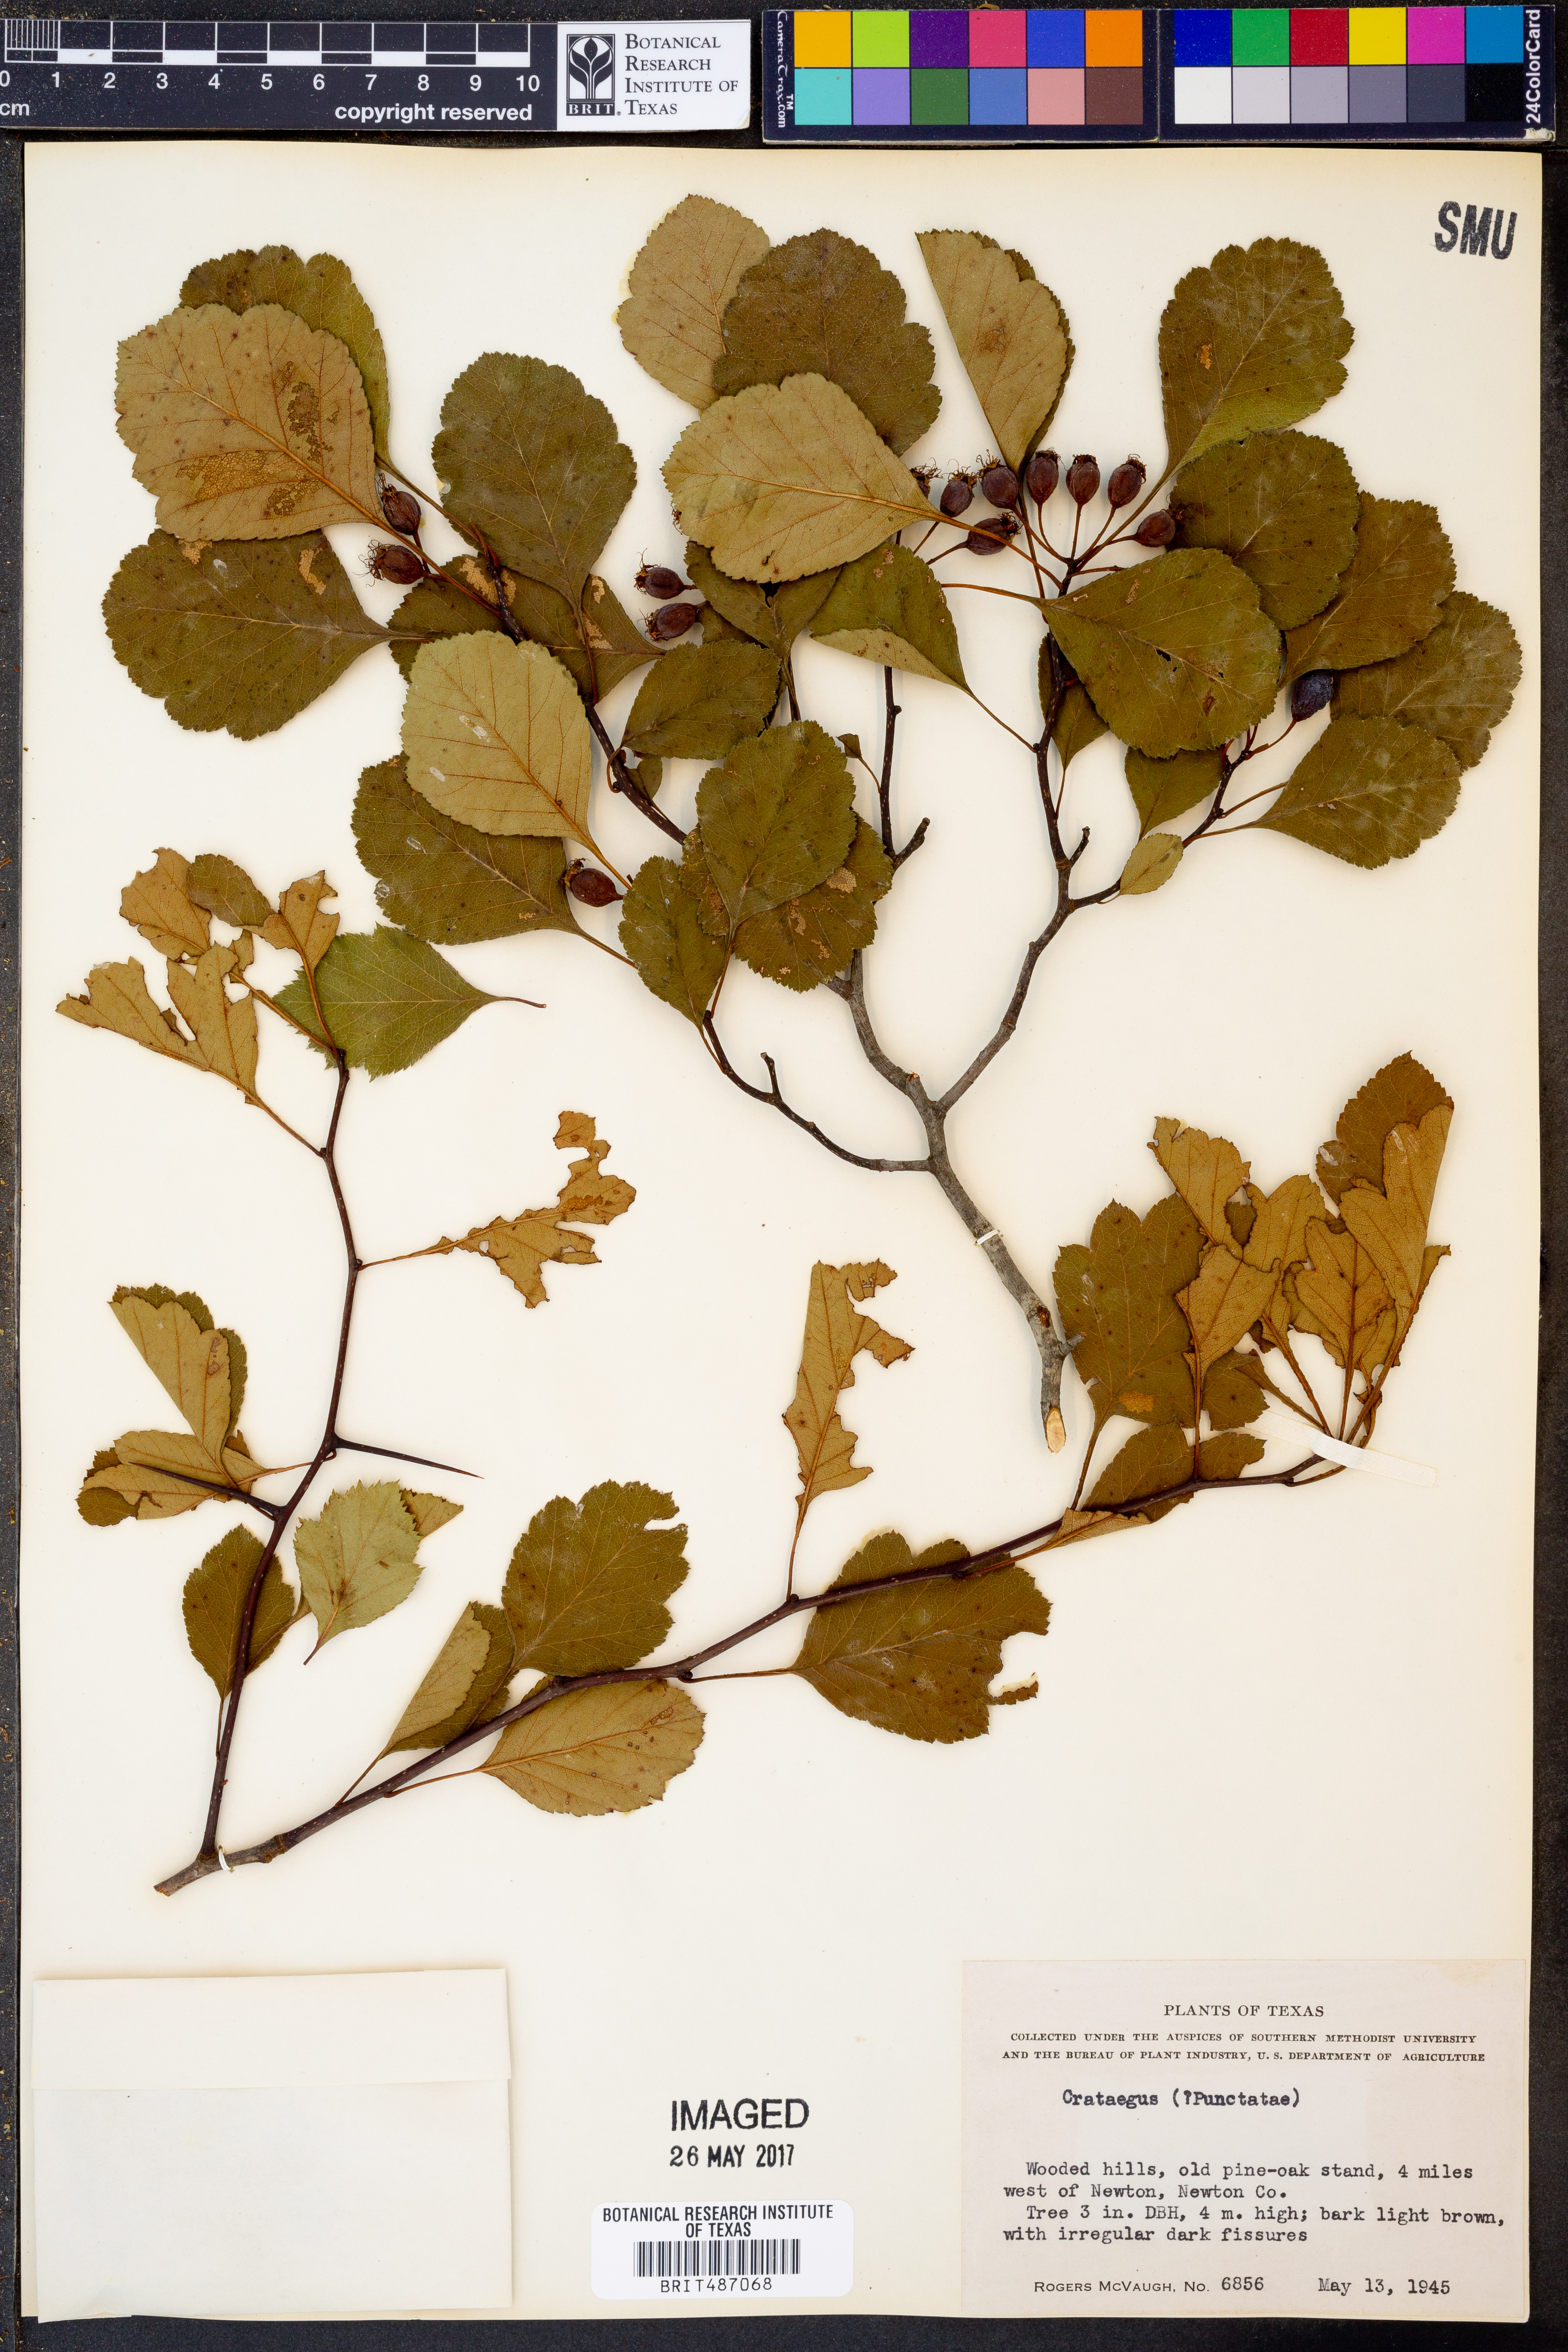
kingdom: Plantae
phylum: Tracheophyta
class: Magnoliopsida
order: Rosales
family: Rosaceae
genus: Crataegus
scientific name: Crataegus punctata
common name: Dotted hawthorn
